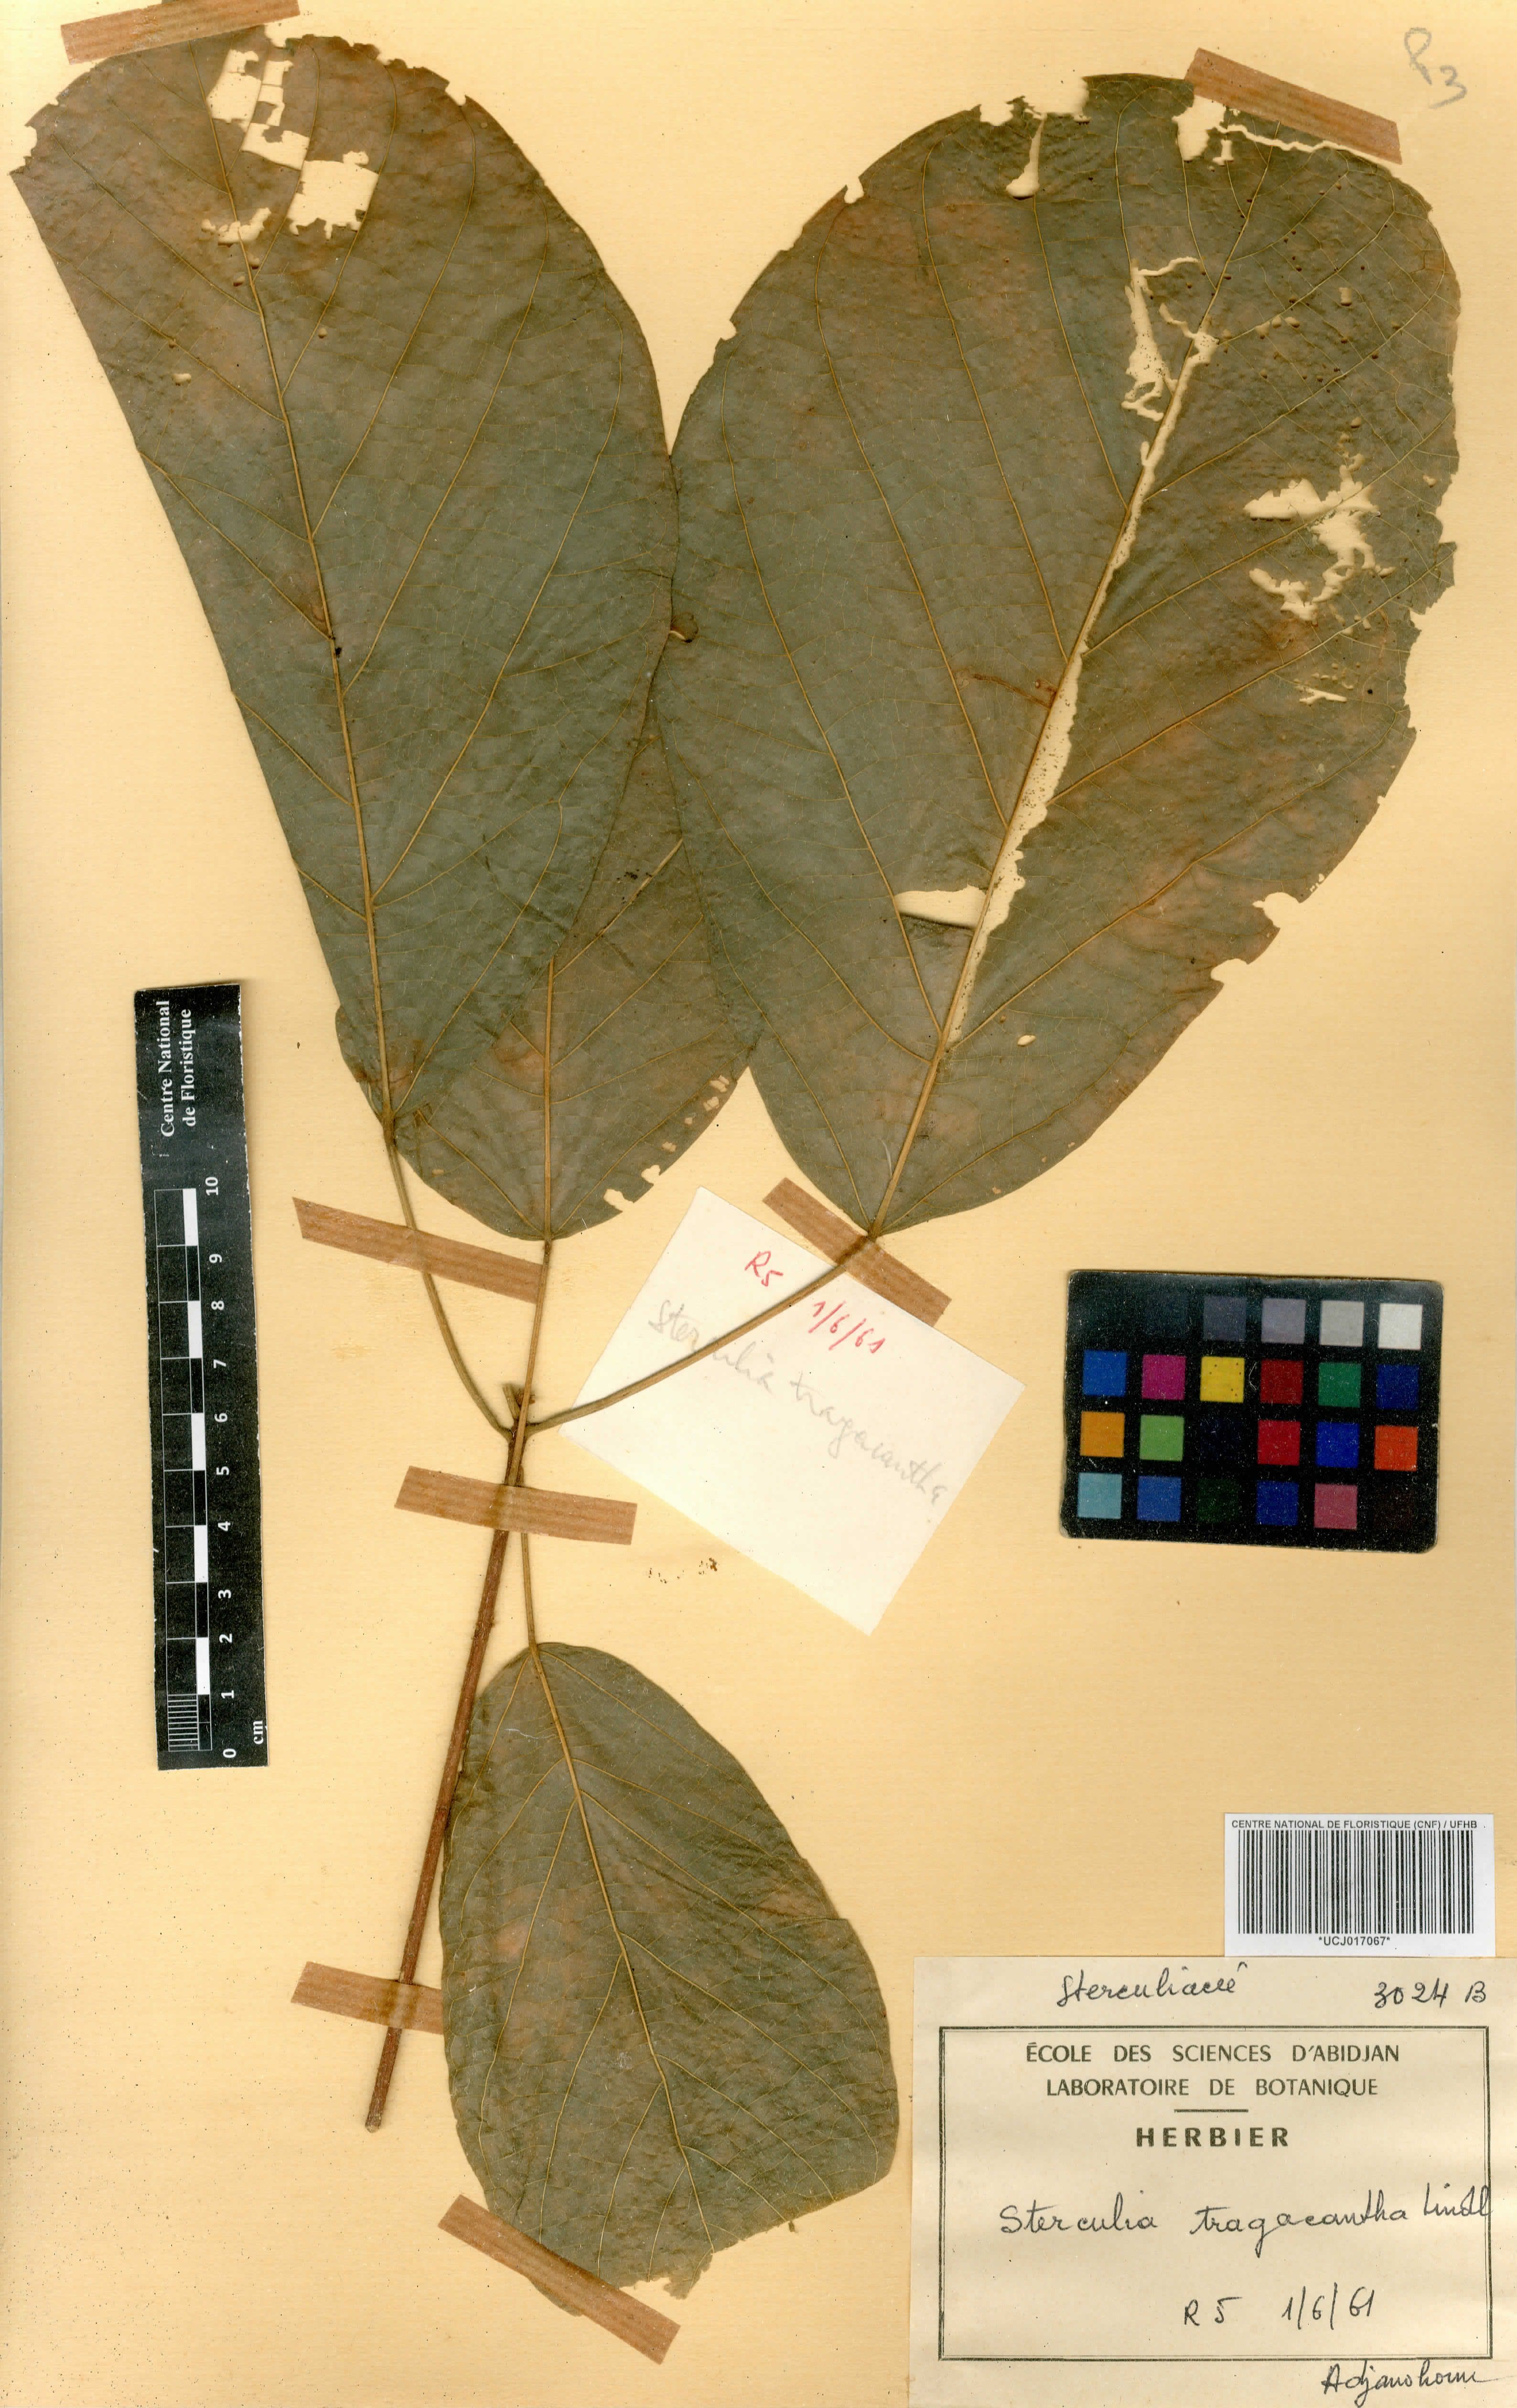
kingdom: Plantae
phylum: Tracheophyta
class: Magnoliopsida
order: Malvales
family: Malvaceae
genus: Sterculia
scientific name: Sterculia tragacantha
